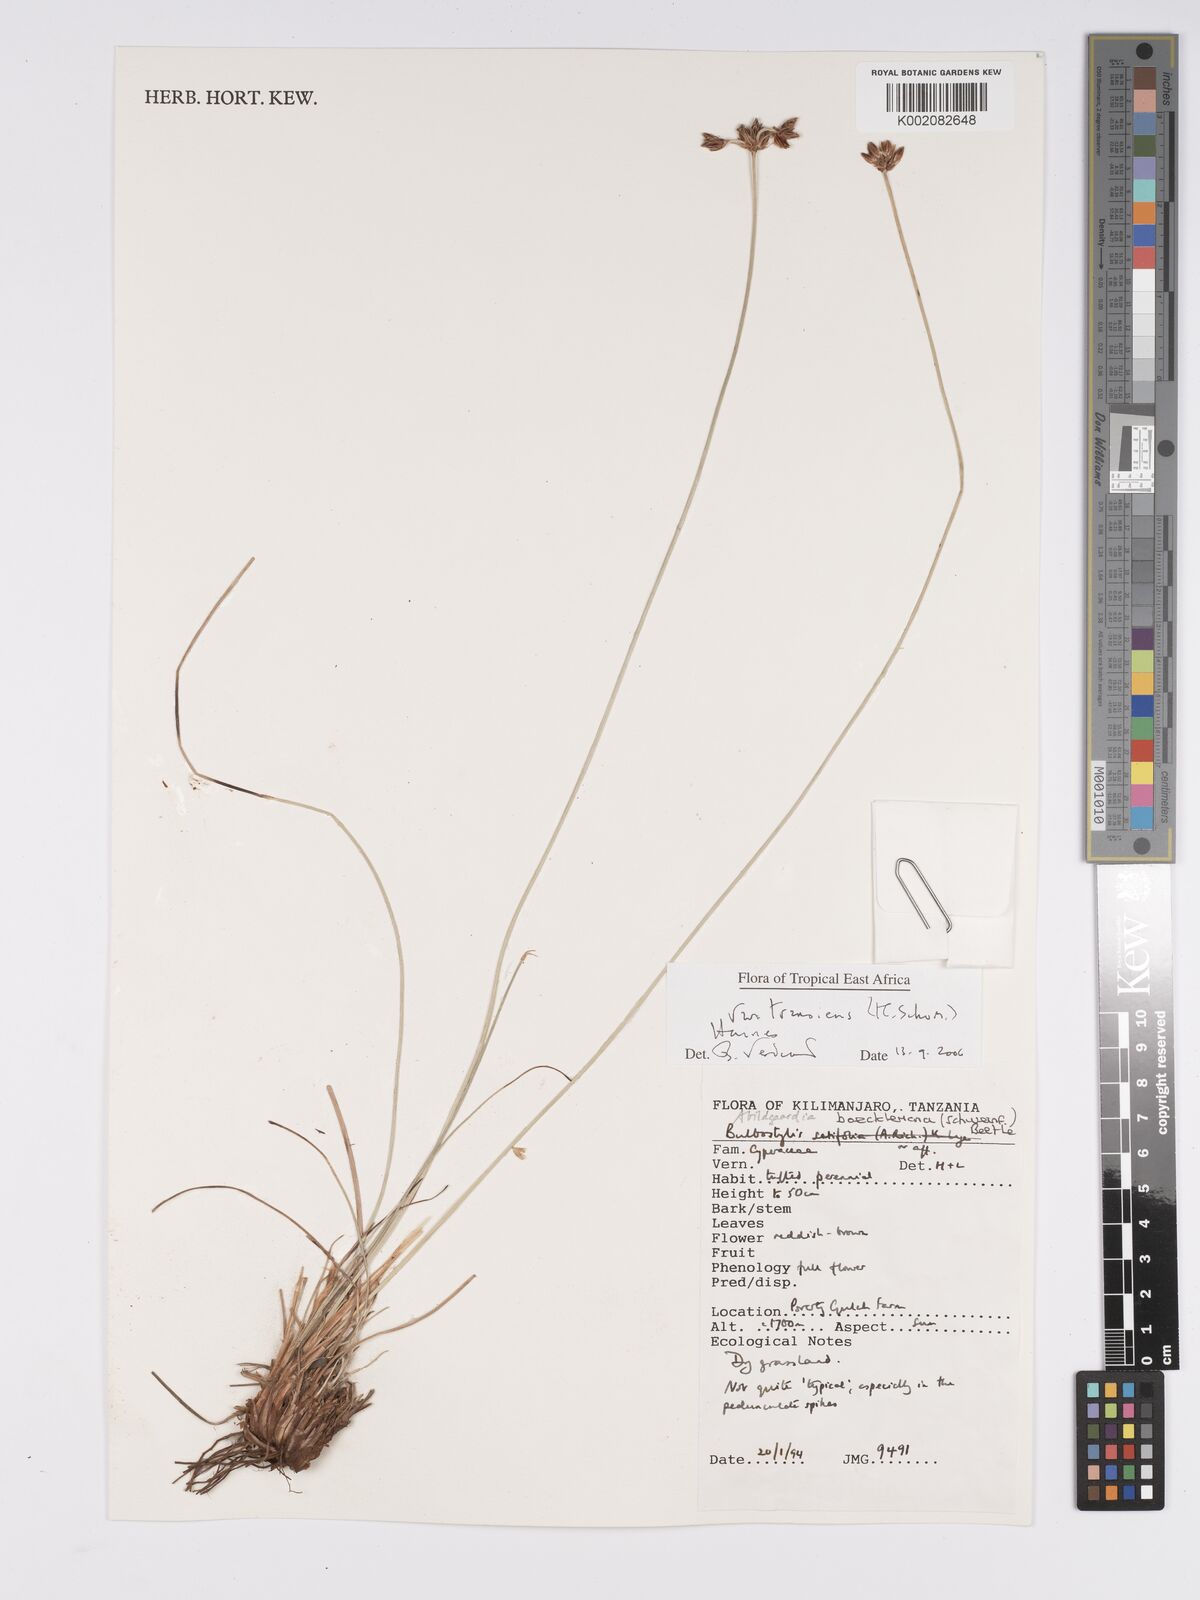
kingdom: Plantae
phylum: Tracheophyta
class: Liliopsida
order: Poales
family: Cyperaceae
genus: Bulbostylis
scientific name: Bulbostylis boeckeleriana
